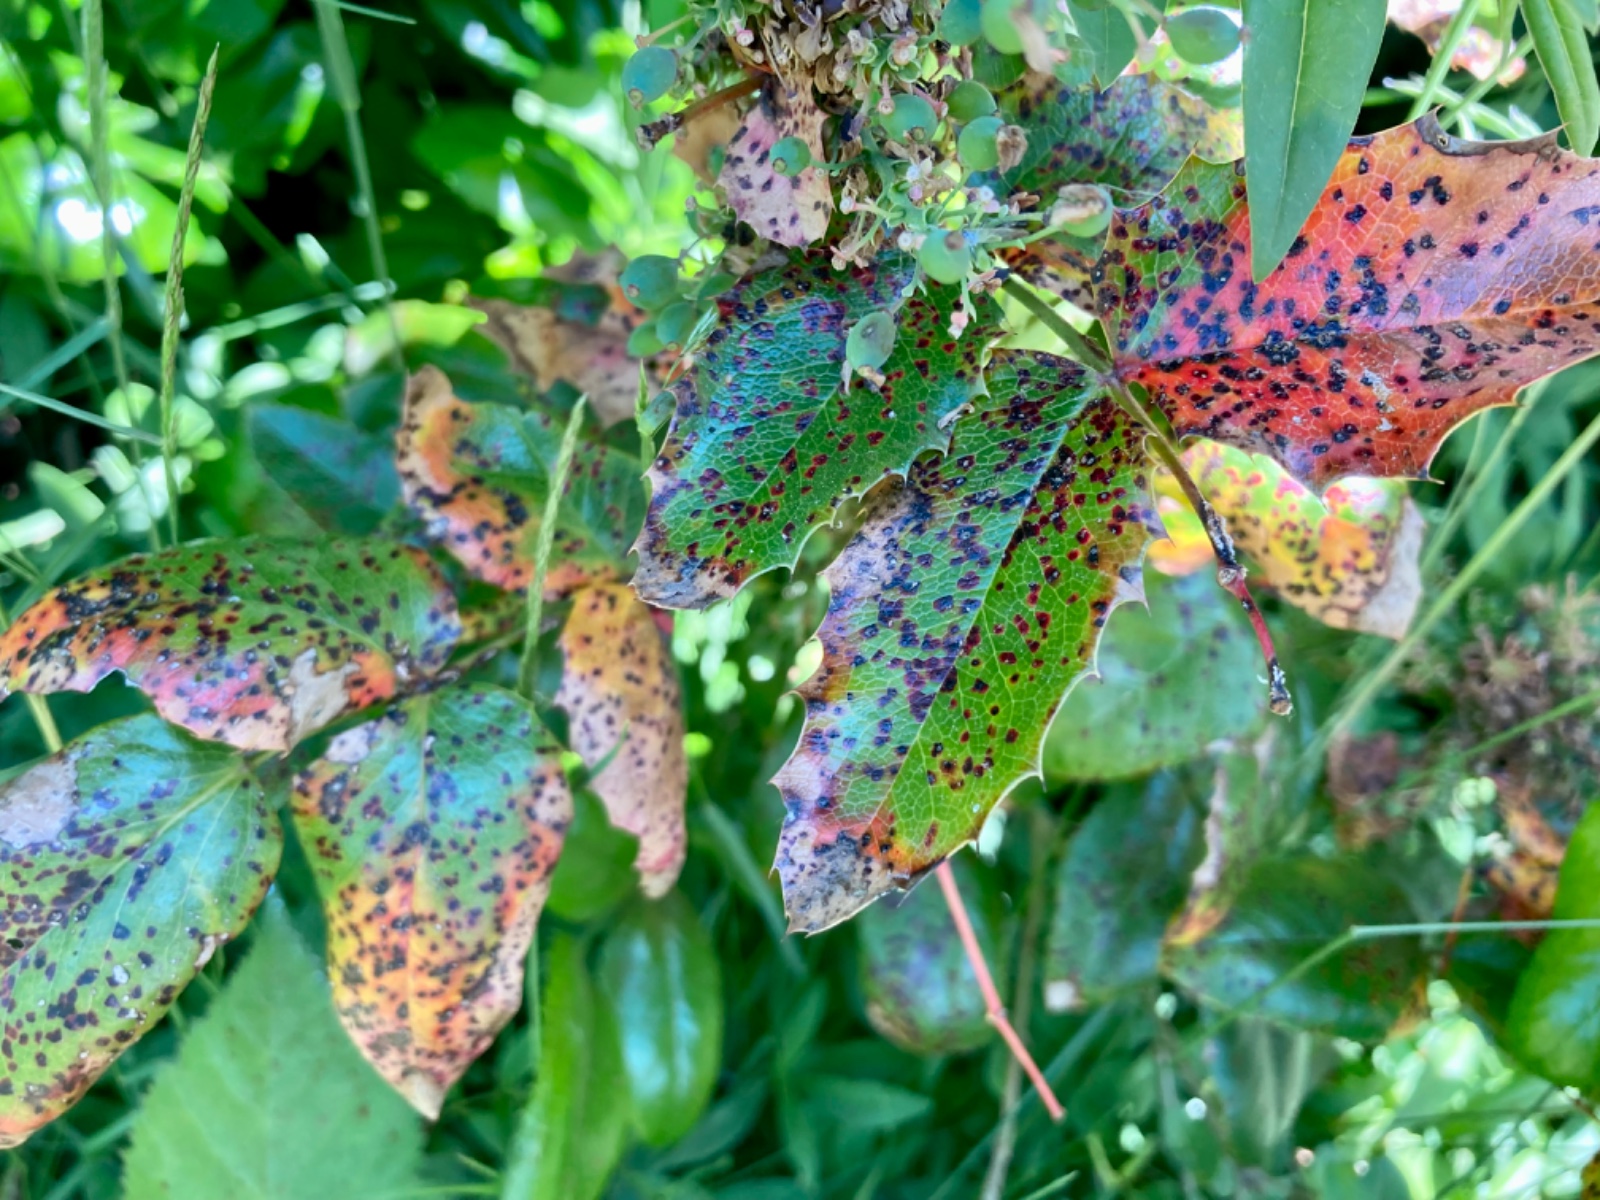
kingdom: Fungi
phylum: Basidiomycota
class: Pucciniomycetes
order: Pucciniales
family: Pucciniaceae
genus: Cumminsiella
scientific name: Cumminsiella mirabilissima
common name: mahonierust
